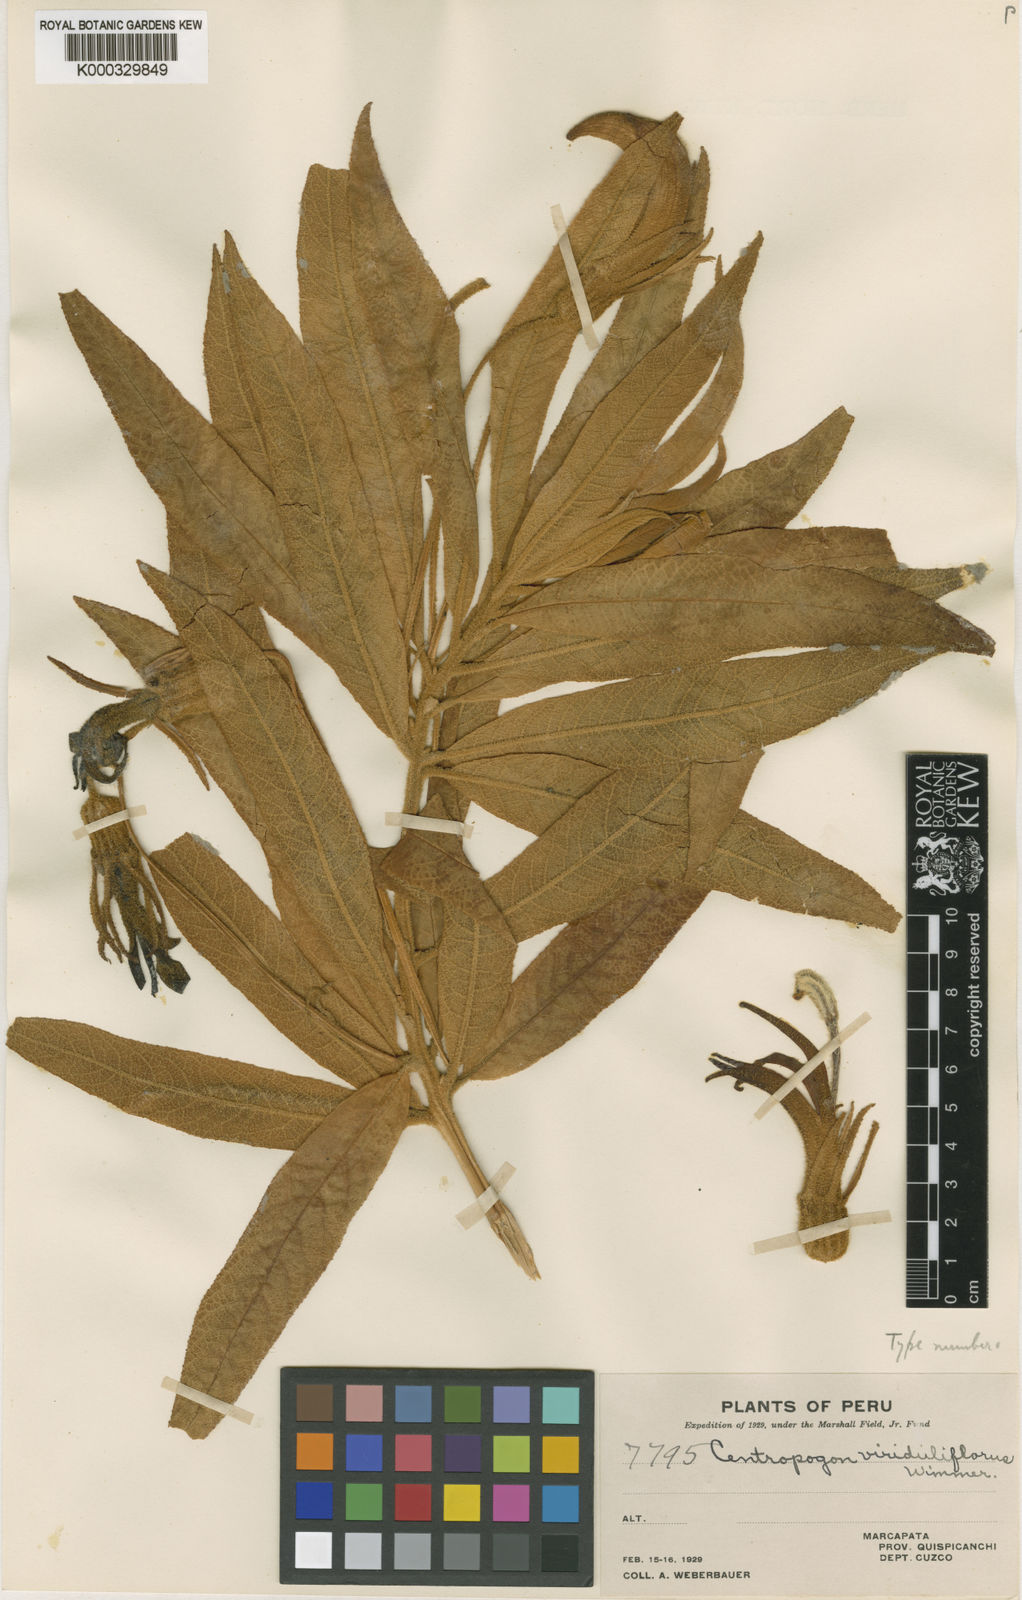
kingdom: Plantae
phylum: Tracheophyta
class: Magnoliopsida
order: Asterales
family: Campanulaceae
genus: Centropogon
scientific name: Centropogon viriduliflorus
